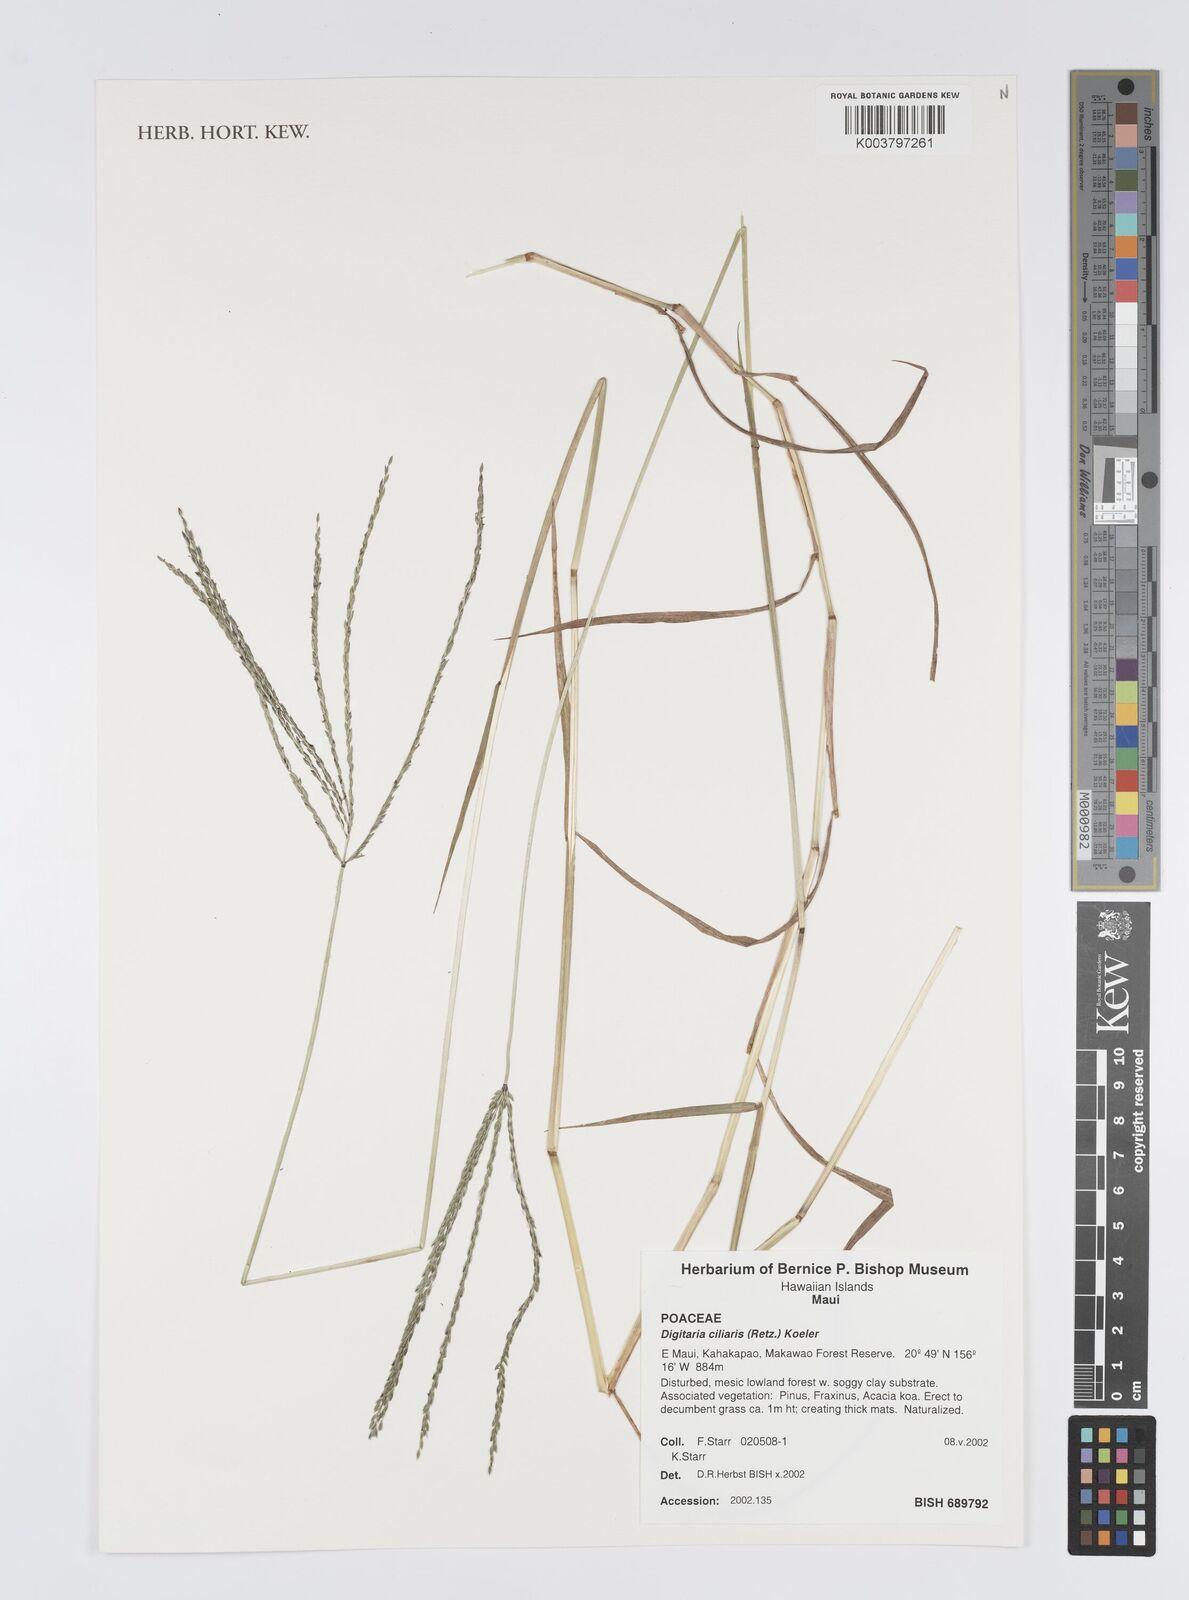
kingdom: Plantae
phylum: Tracheophyta
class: Liliopsida
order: Poales
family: Poaceae
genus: Digitaria
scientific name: Digitaria ciliaris
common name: Tropical finger-grass
